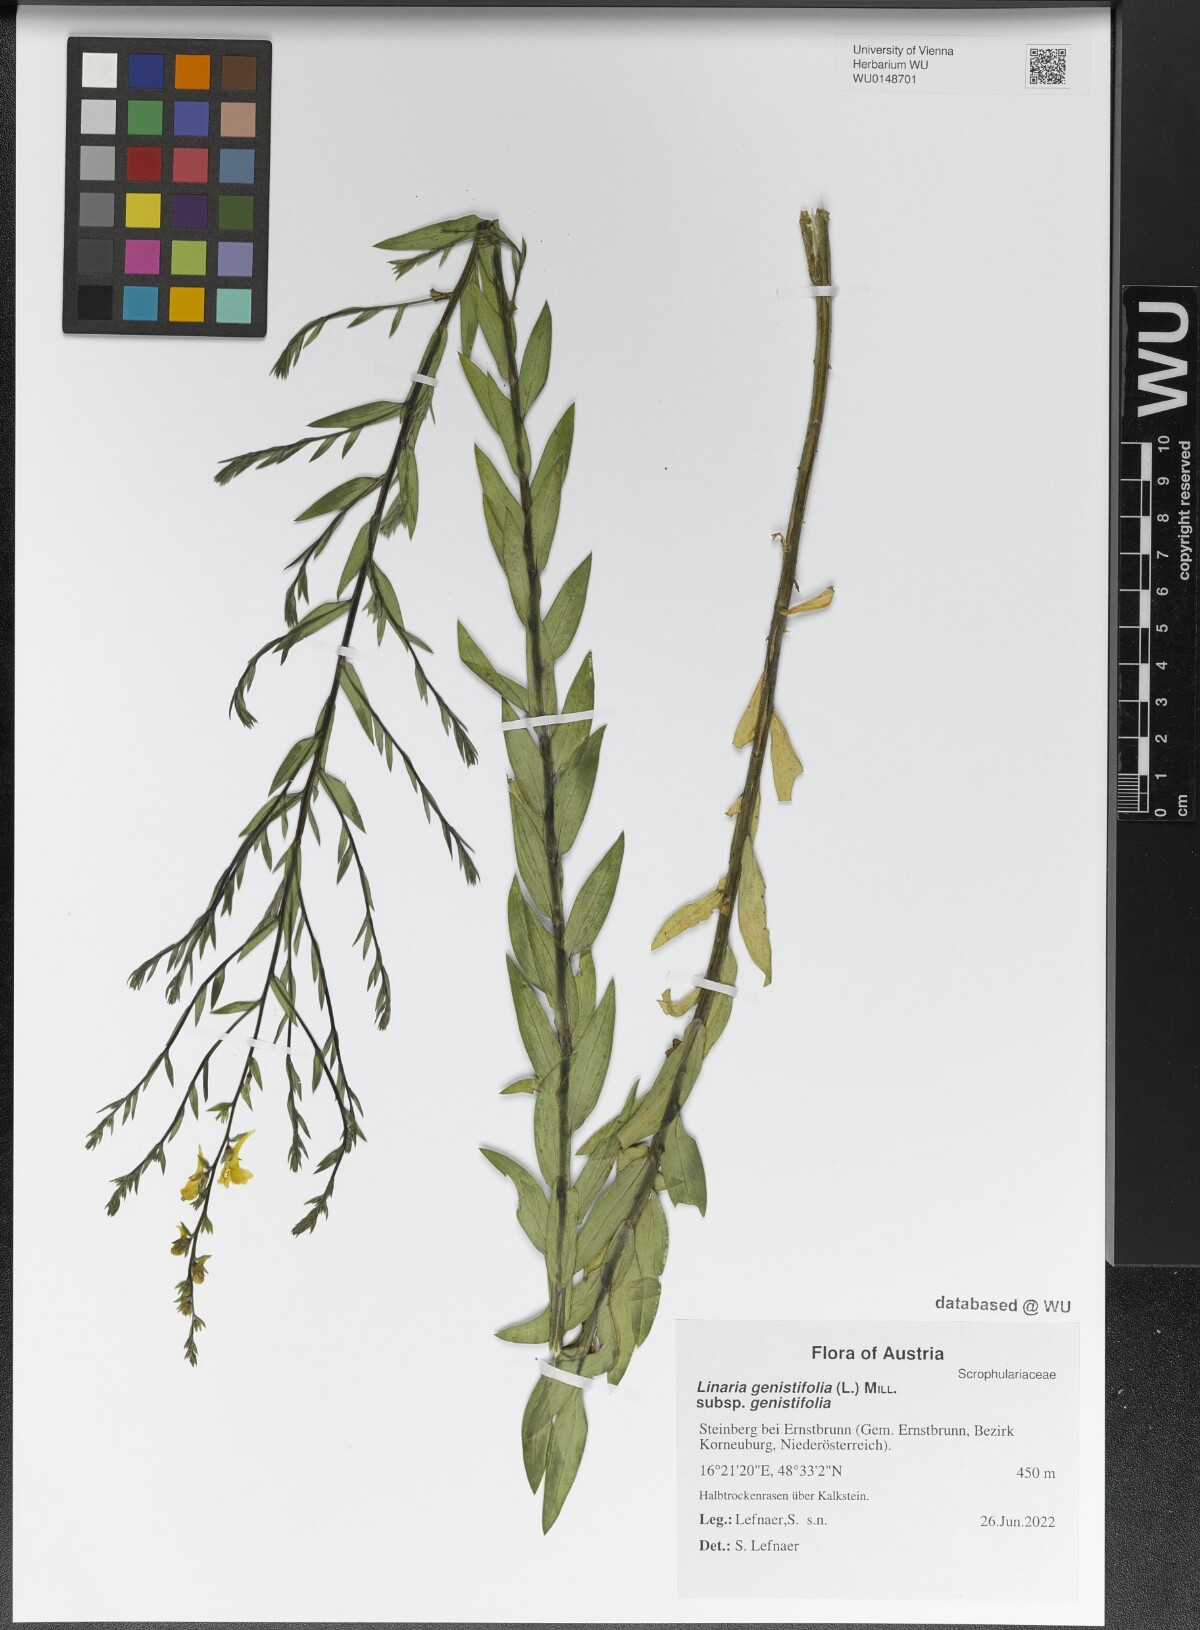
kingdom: Plantae
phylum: Tracheophyta
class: Magnoliopsida
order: Lamiales
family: Plantaginaceae
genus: Linaria
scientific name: Linaria genistifolia
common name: Broomleaf toadflax
